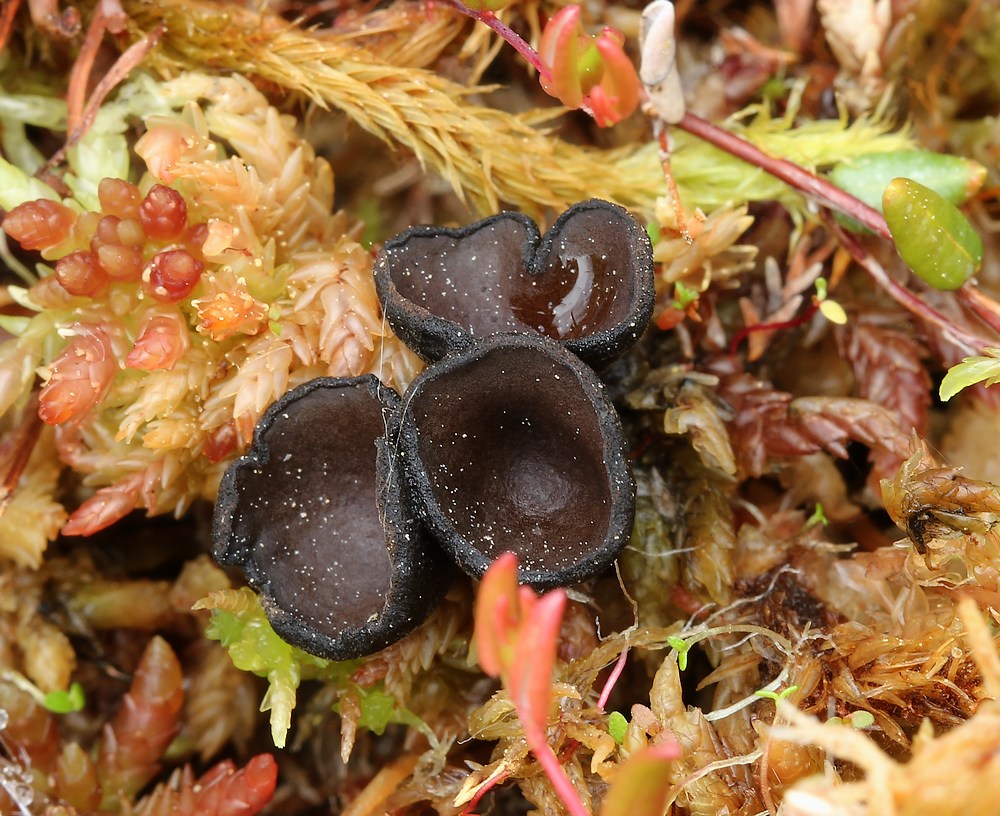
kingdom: Fungi
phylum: Ascomycota
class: Pezizomycetes
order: Pezizales
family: Sarcosomataceae
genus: Pseudoplectania
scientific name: Pseudoplectania episphagnum
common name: tørvemos-sortbæger
